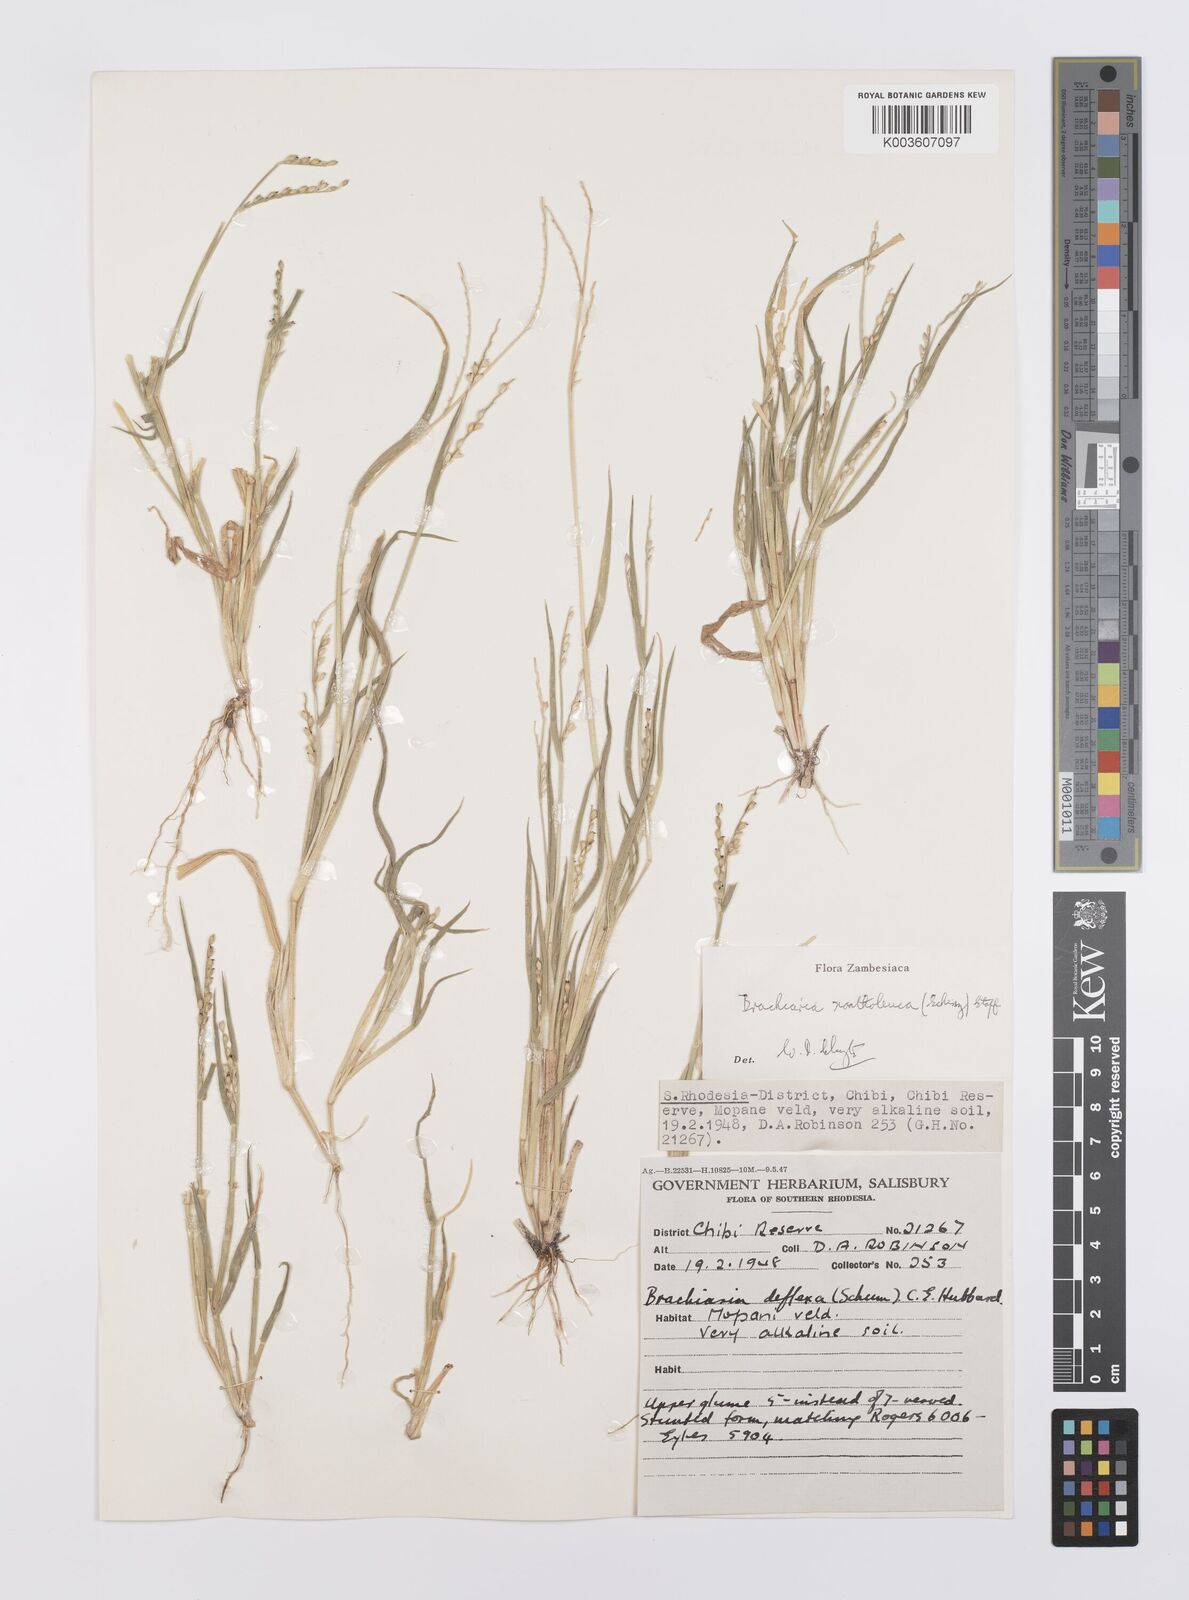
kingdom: Plantae
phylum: Tracheophyta
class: Liliopsida
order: Poales
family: Poaceae
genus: Urochloa
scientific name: Urochloa xantholeuca
